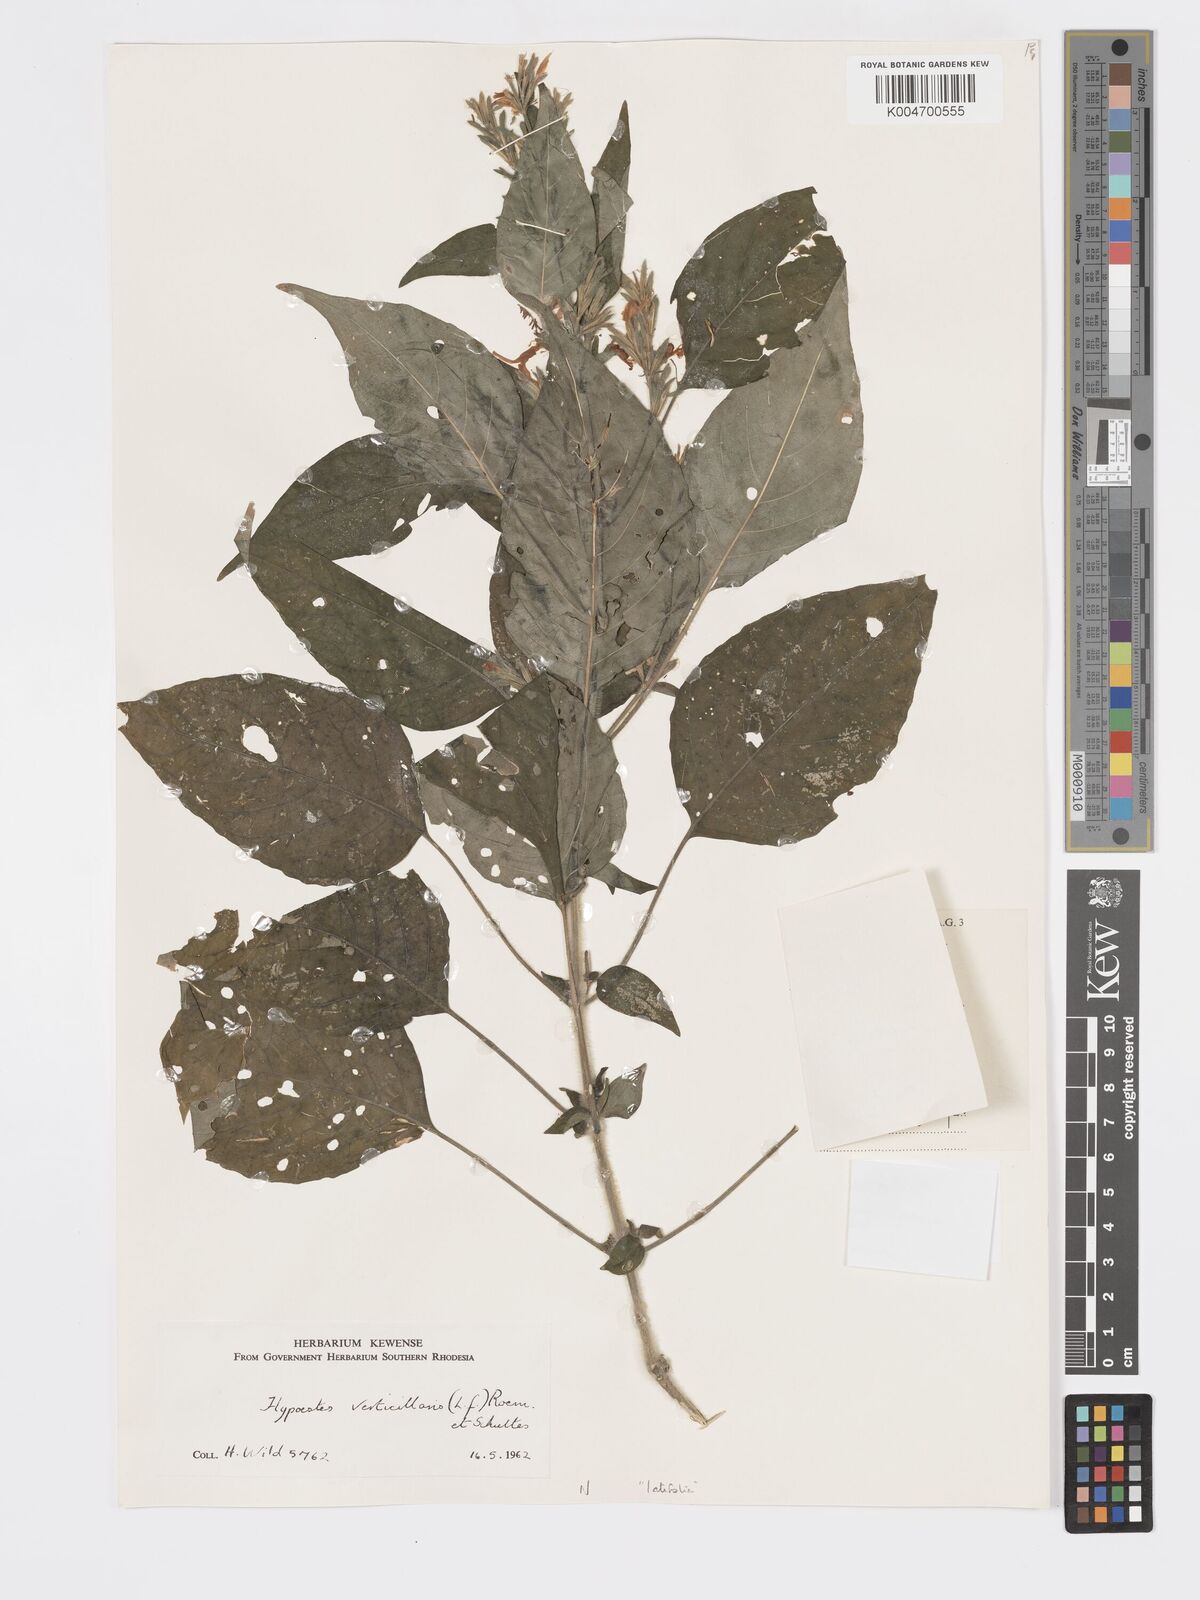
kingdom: Plantae
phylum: Tracheophyta
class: Magnoliopsida
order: Lamiales
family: Acanthaceae
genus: Hypoestes
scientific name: Hypoestes forskaolii
